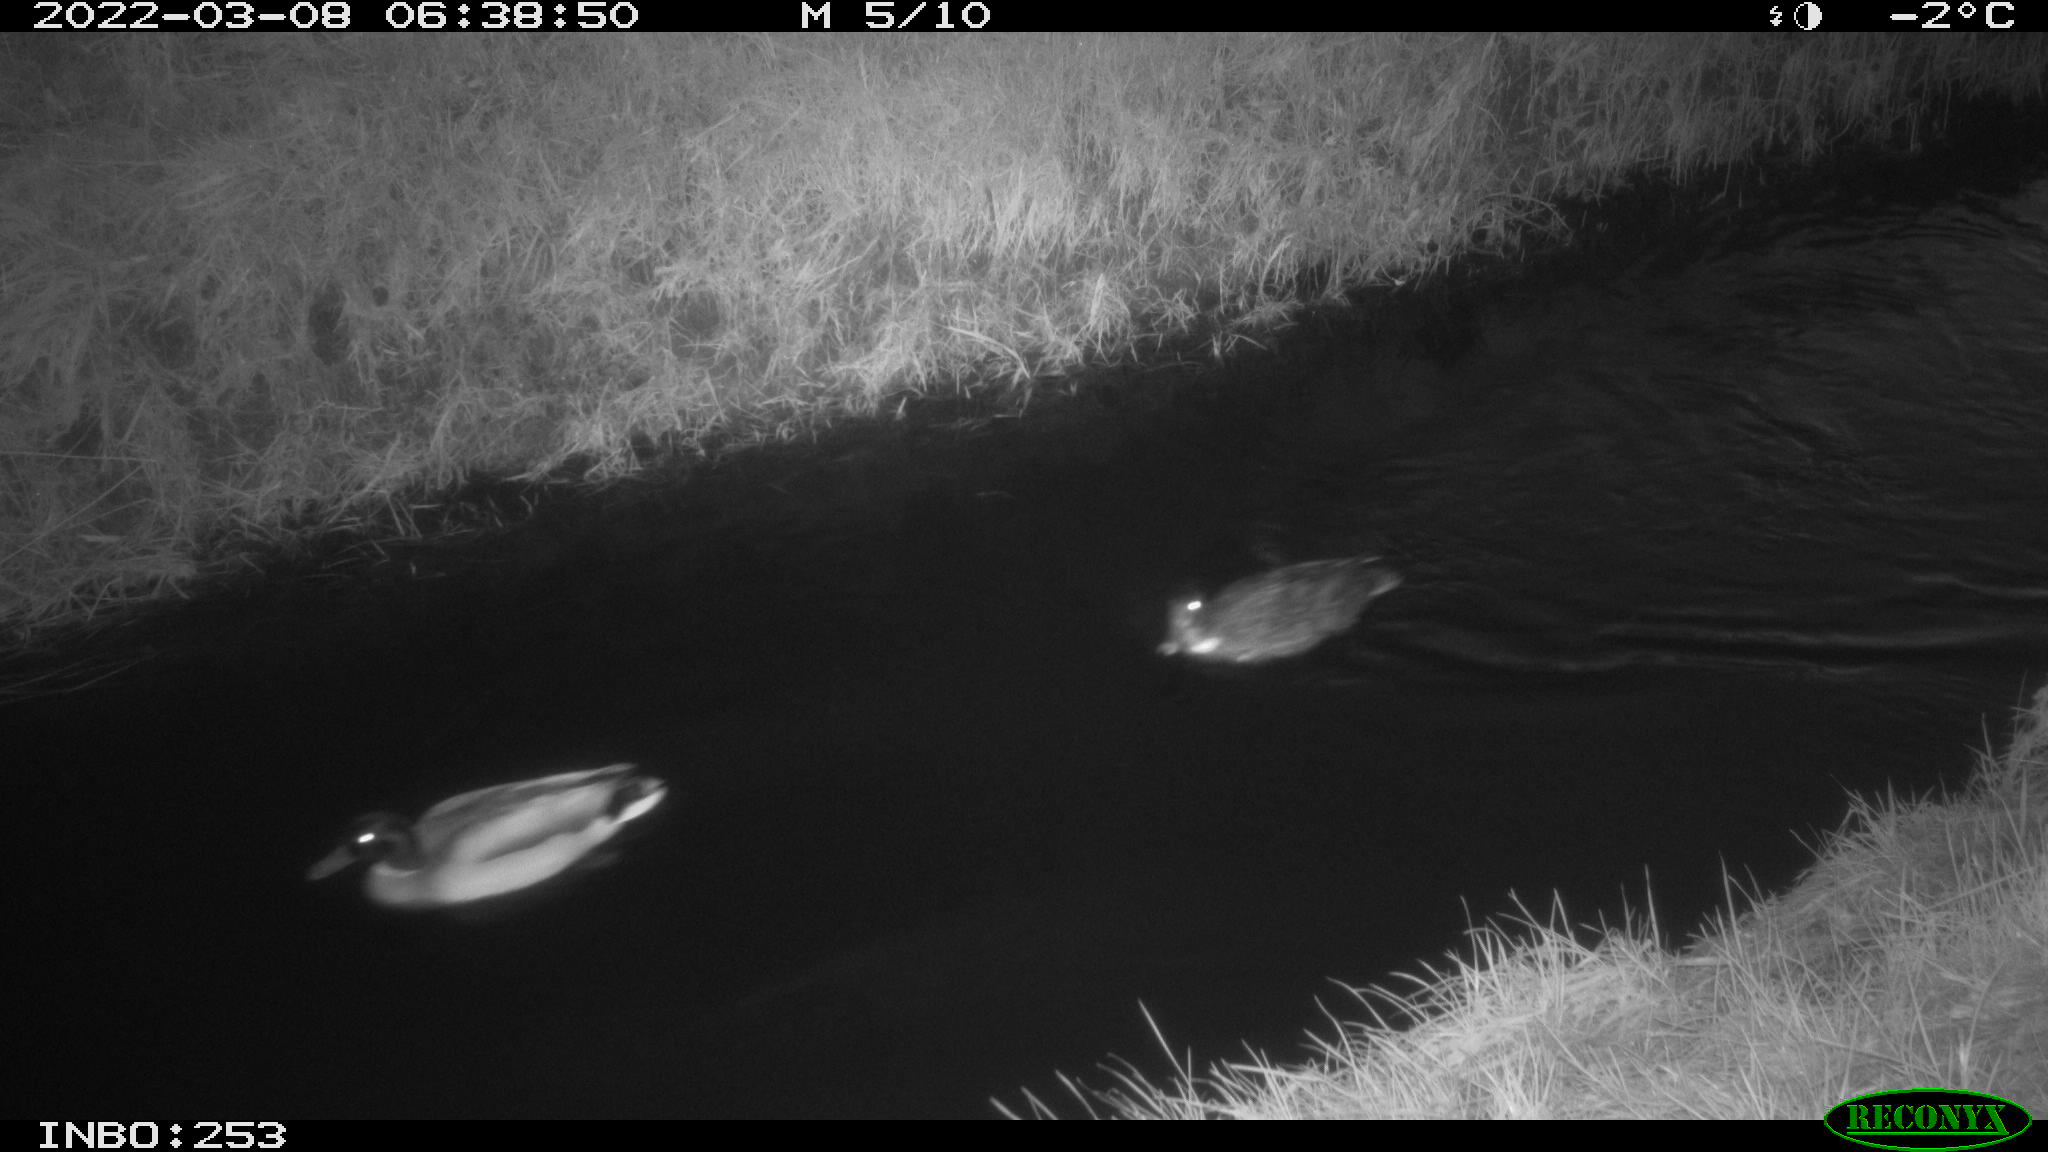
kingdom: Animalia
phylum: Chordata
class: Aves
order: Anseriformes
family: Anatidae
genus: Anas
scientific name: Anas platyrhynchos
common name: Mallard
